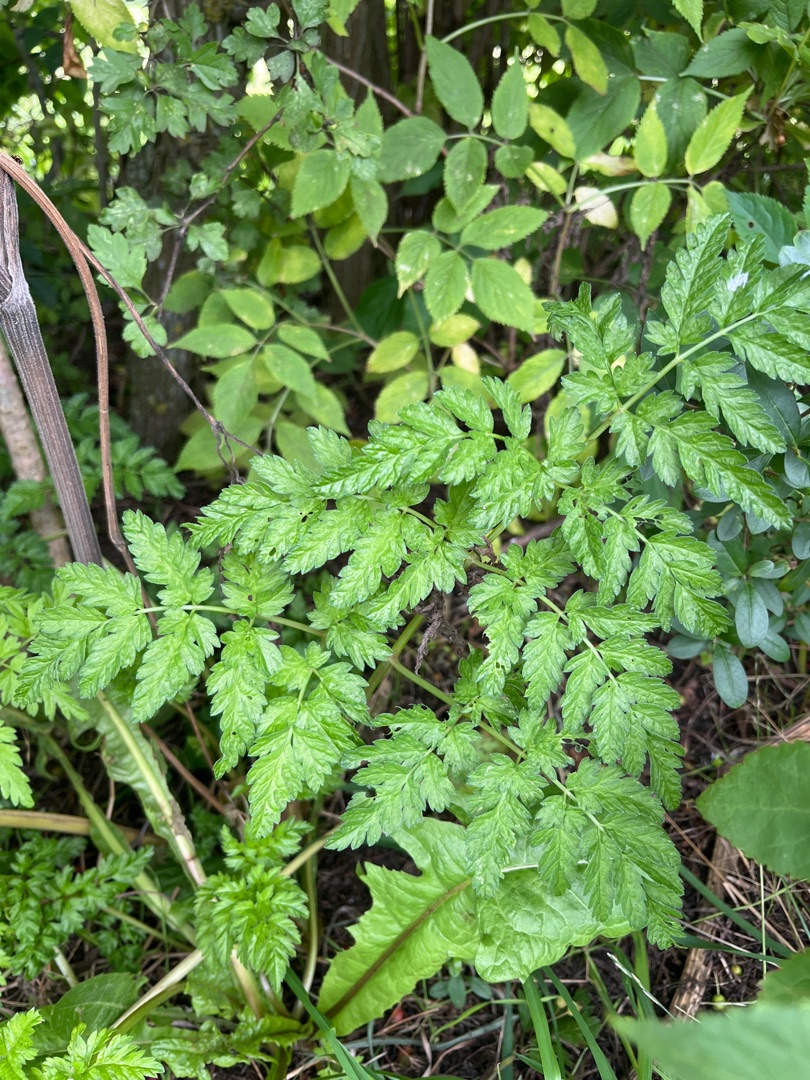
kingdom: Plantae
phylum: Tracheophyta
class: Magnoliopsida
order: Apiales
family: Apiaceae
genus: Anthriscus
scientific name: Anthriscus sylvestris
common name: Vild kørvel
